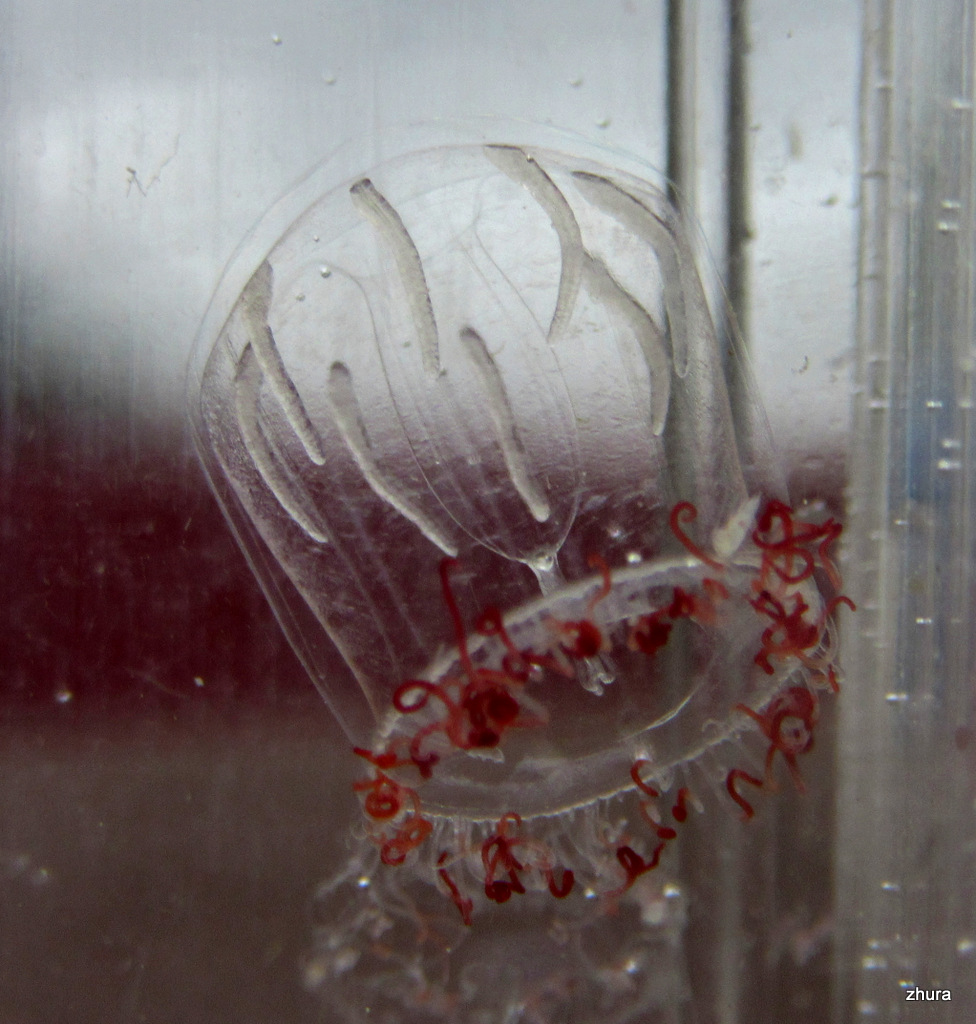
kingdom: Animalia
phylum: Cnidaria
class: Hydrozoa
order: Trachymedusae
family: Rhopalonematidae
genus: Aglantha
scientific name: Aglantha digitale
